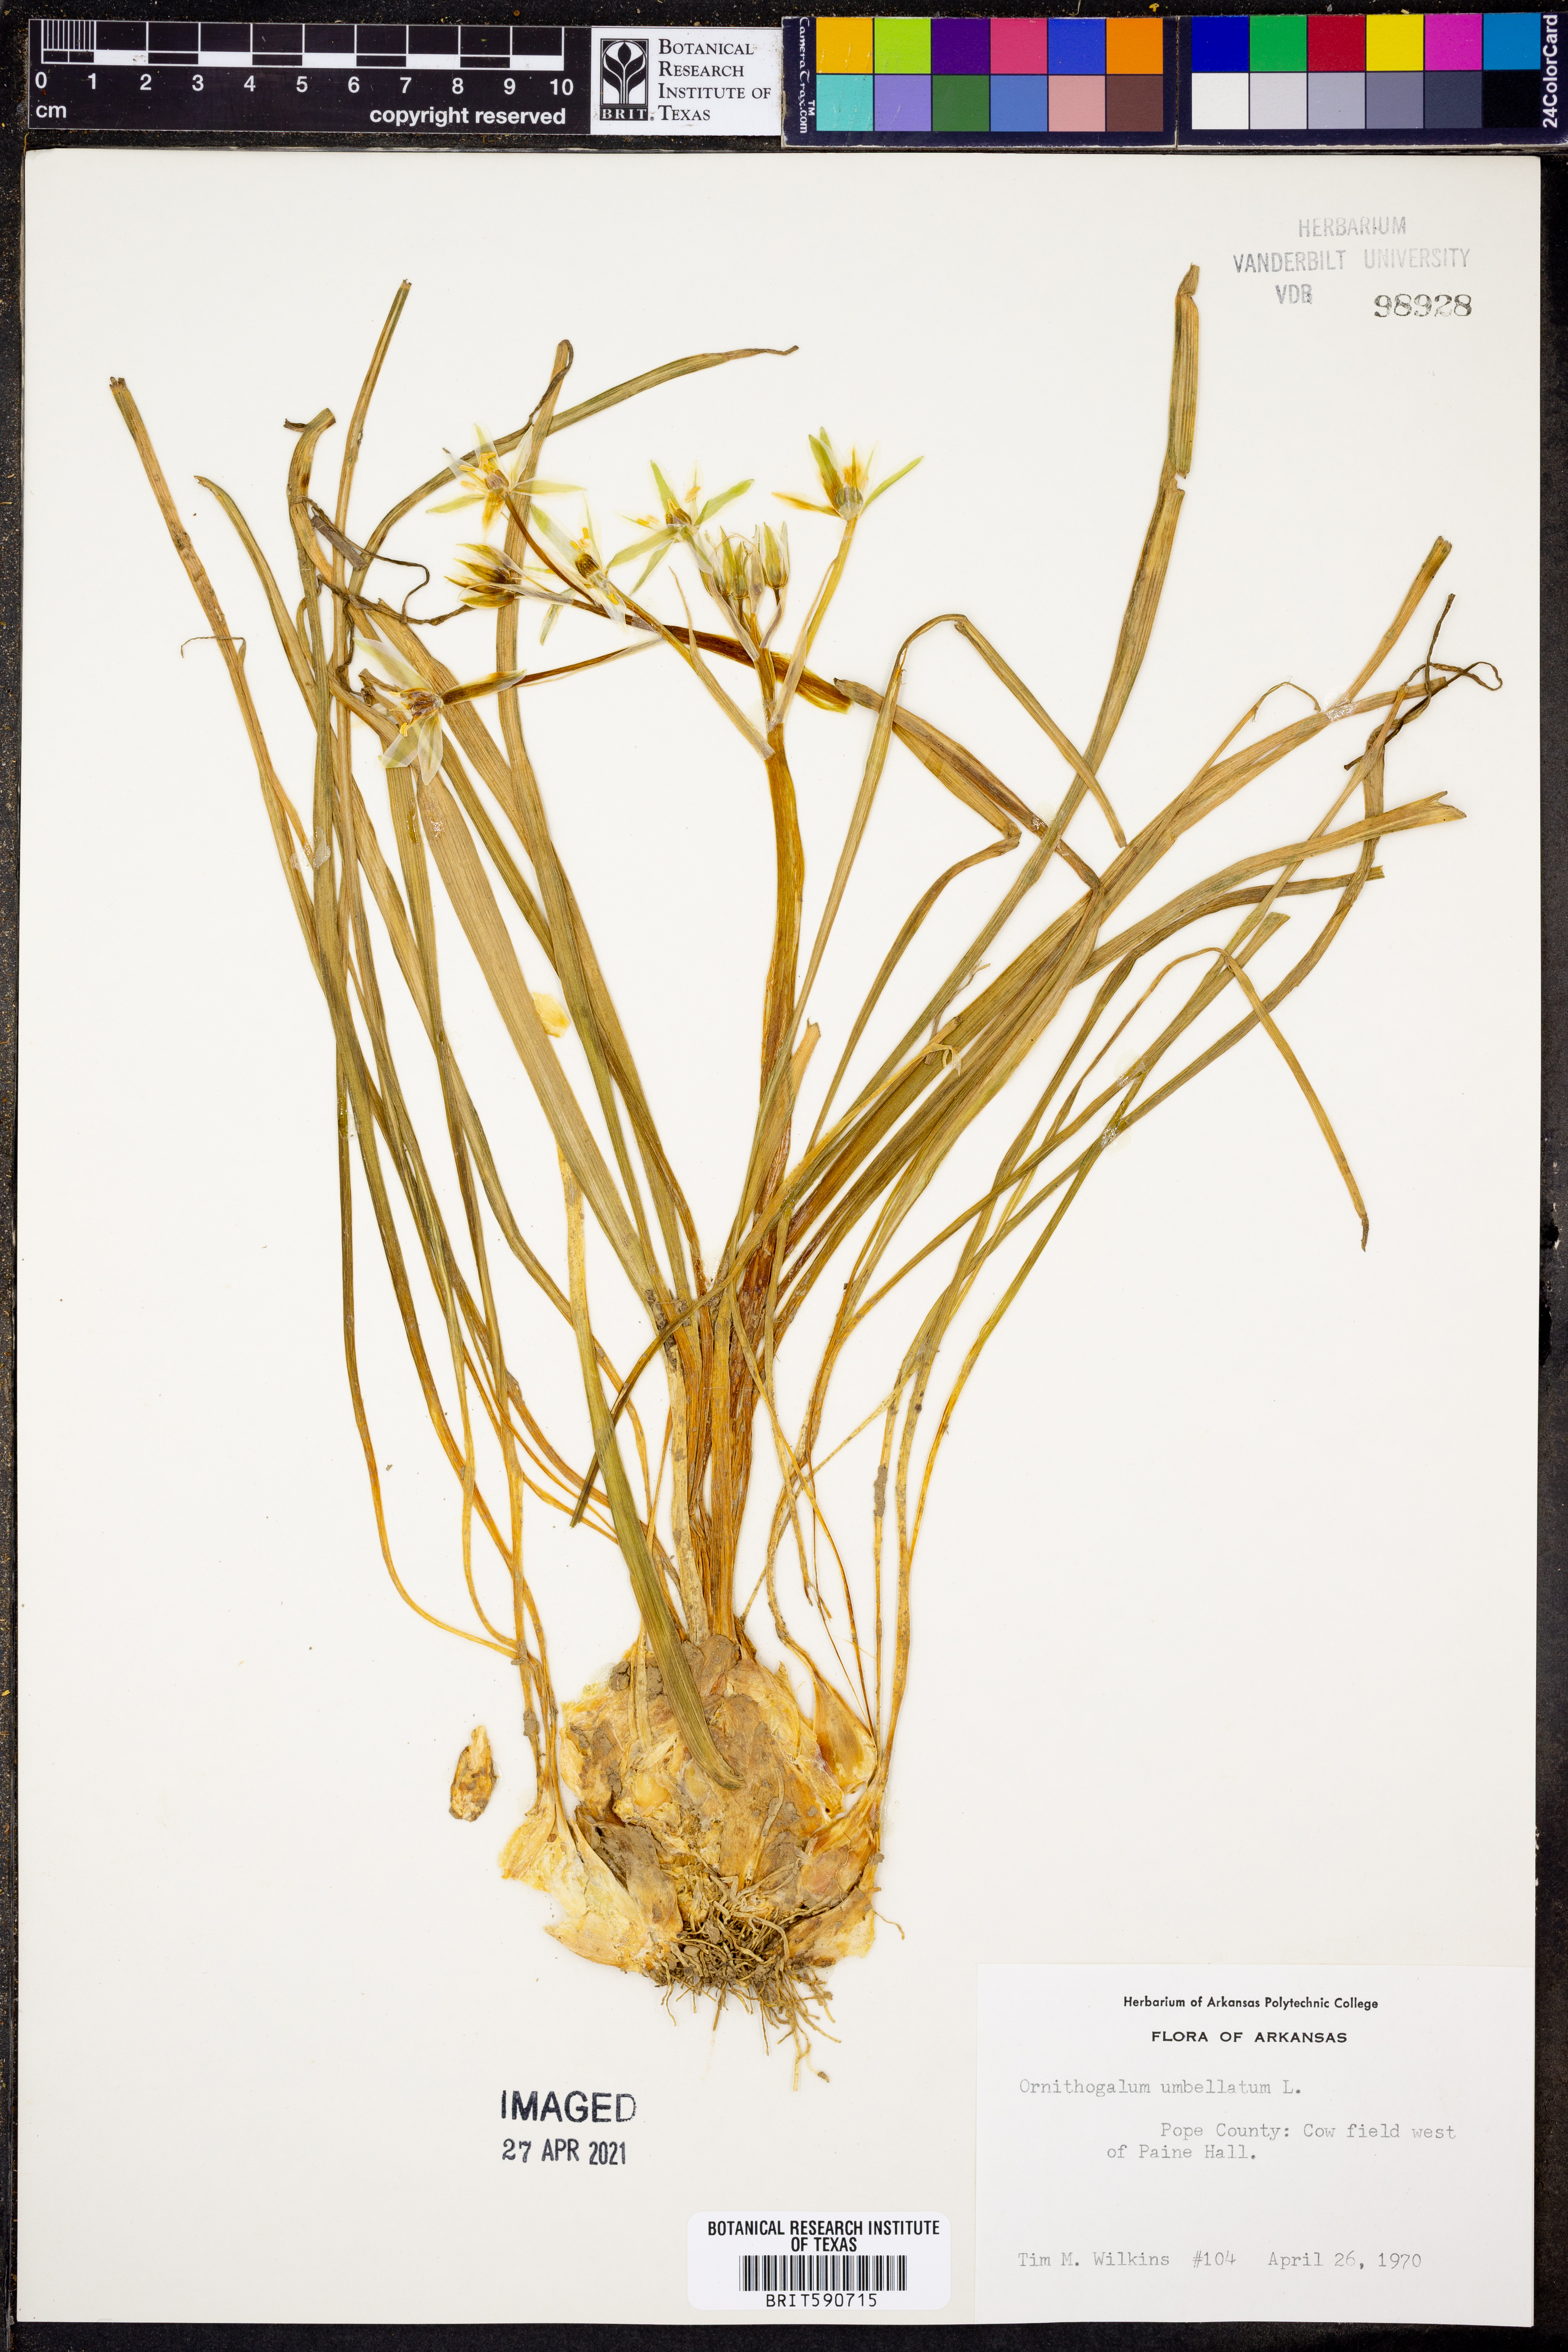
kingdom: Plantae
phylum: Tracheophyta
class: Liliopsida
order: Asparagales
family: Asparagaceae
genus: Ornithogalum
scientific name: Ornithogalum umbellatum
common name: Garden star-of-bethlehem
